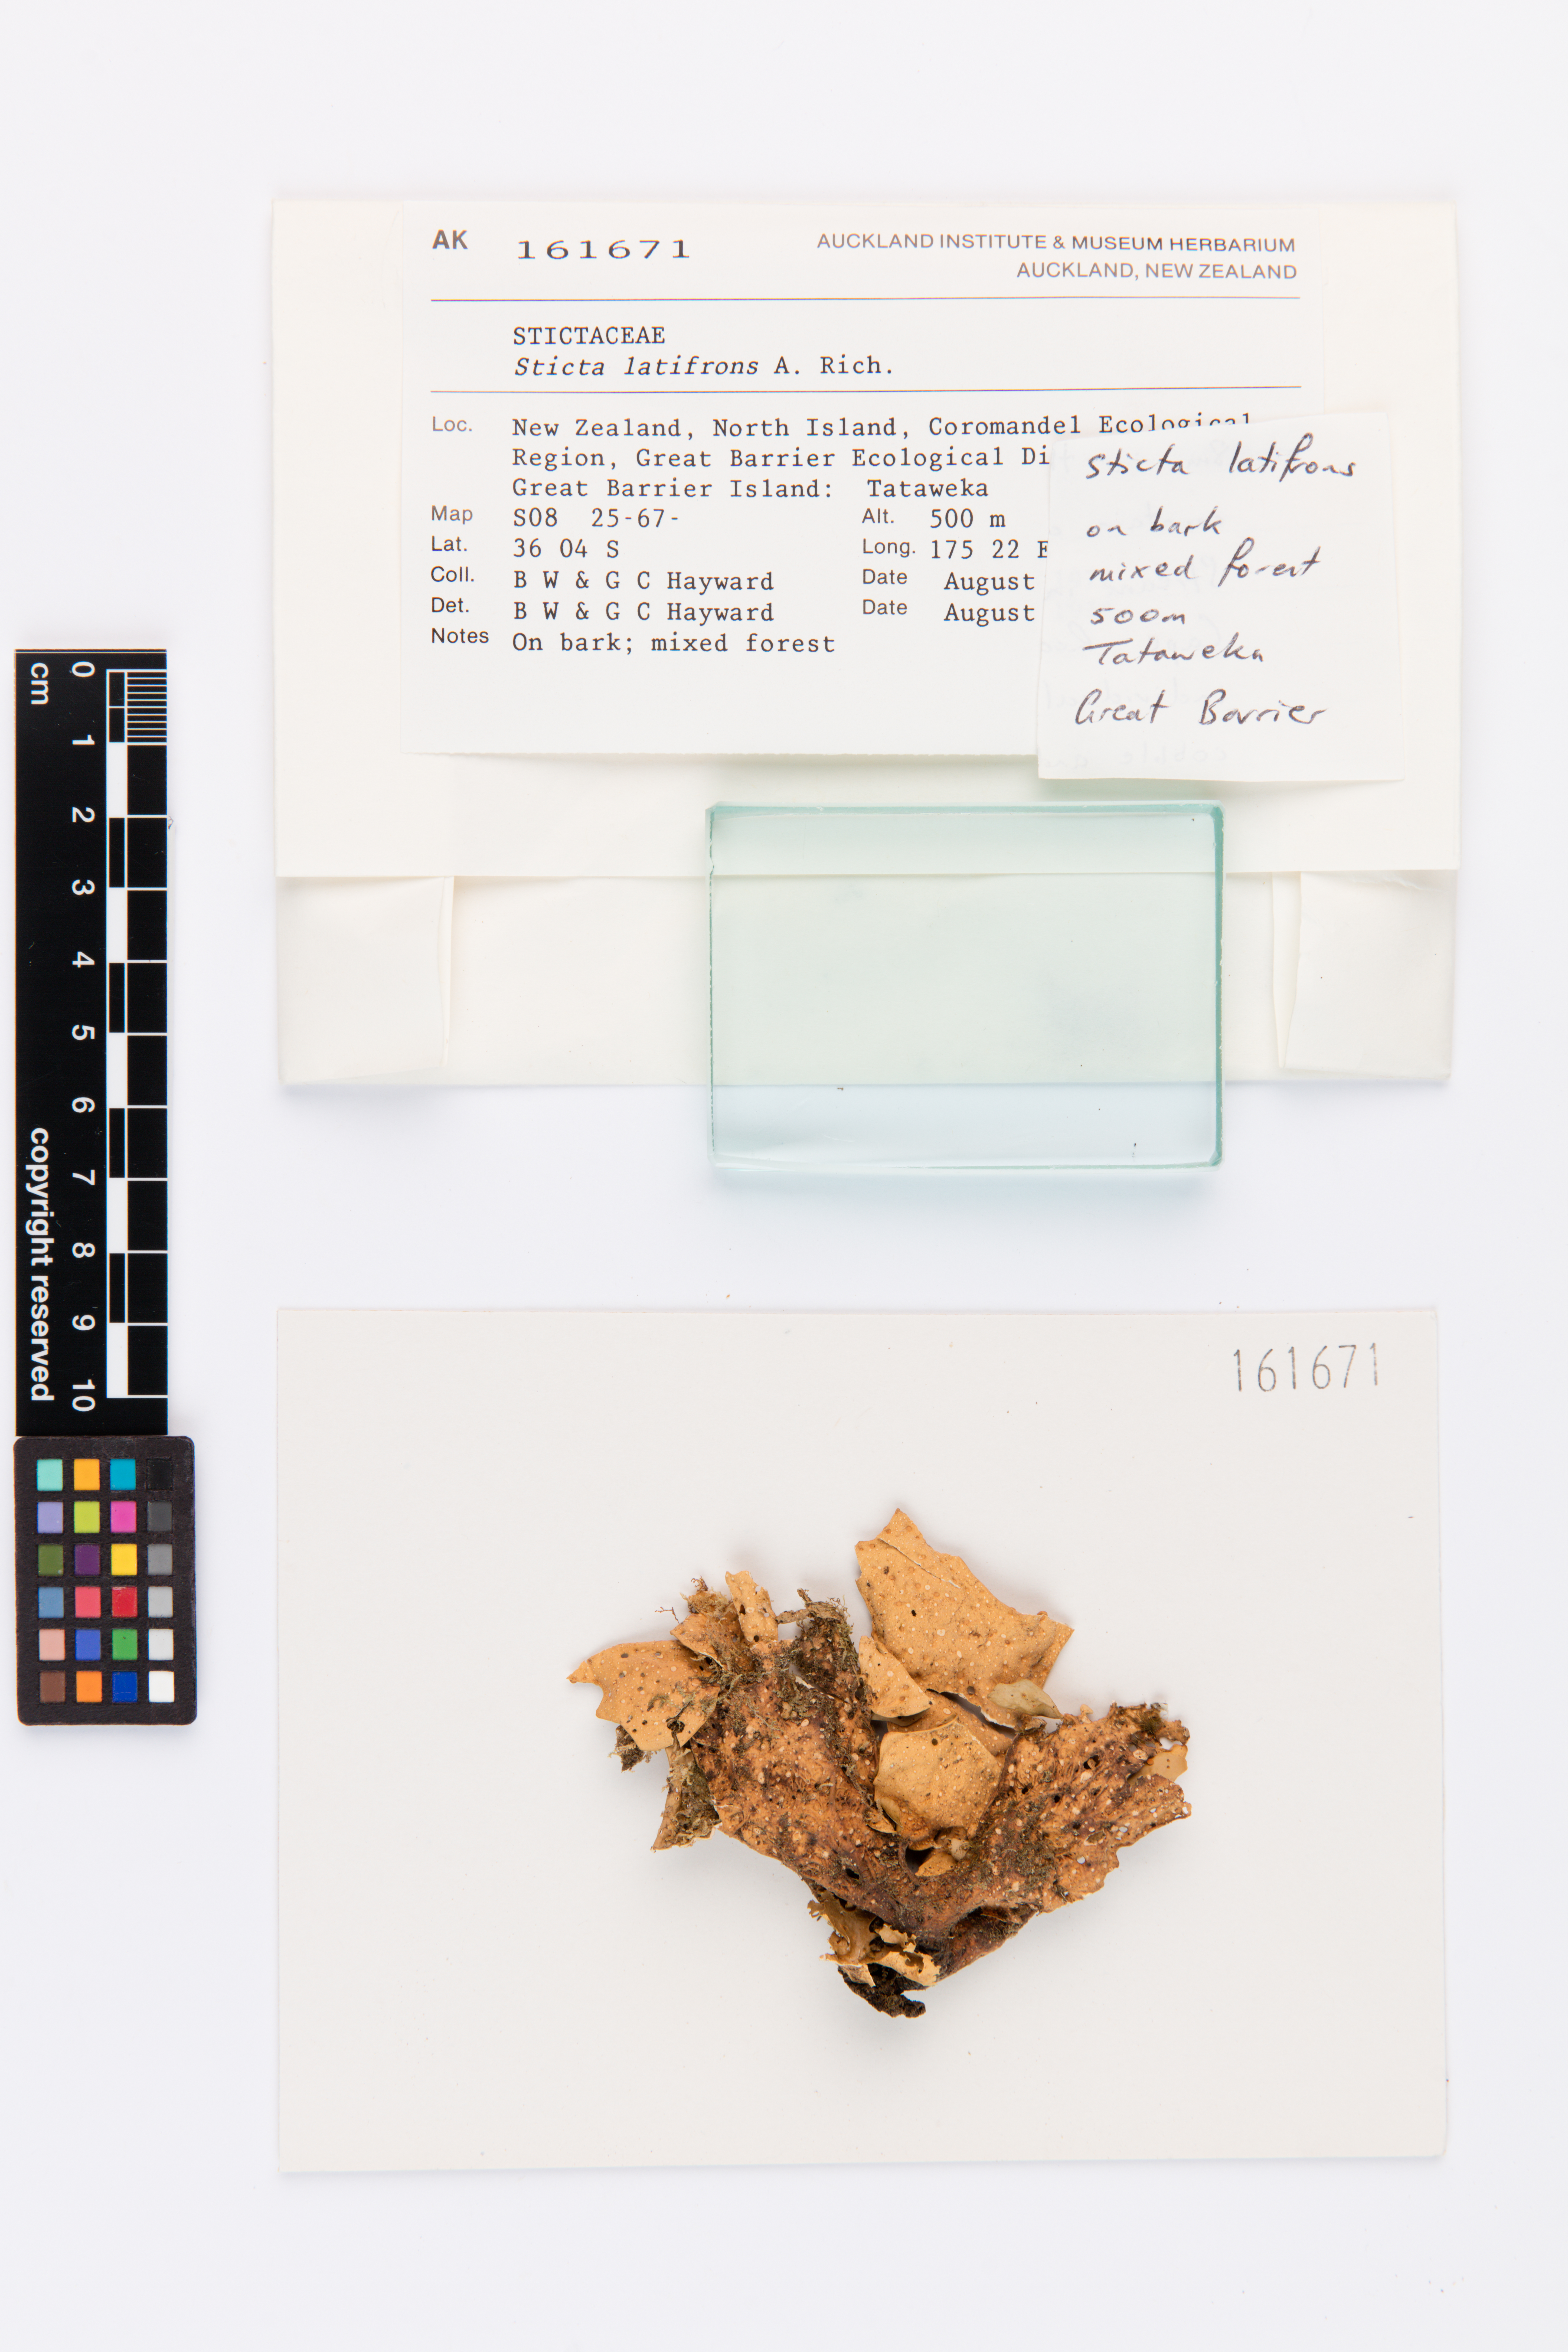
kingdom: Fungi
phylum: Ascomycota
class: Lecanoromycetes
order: Peltigerales
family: Lobariaceae
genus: Sticta
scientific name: Sticta latifrons
